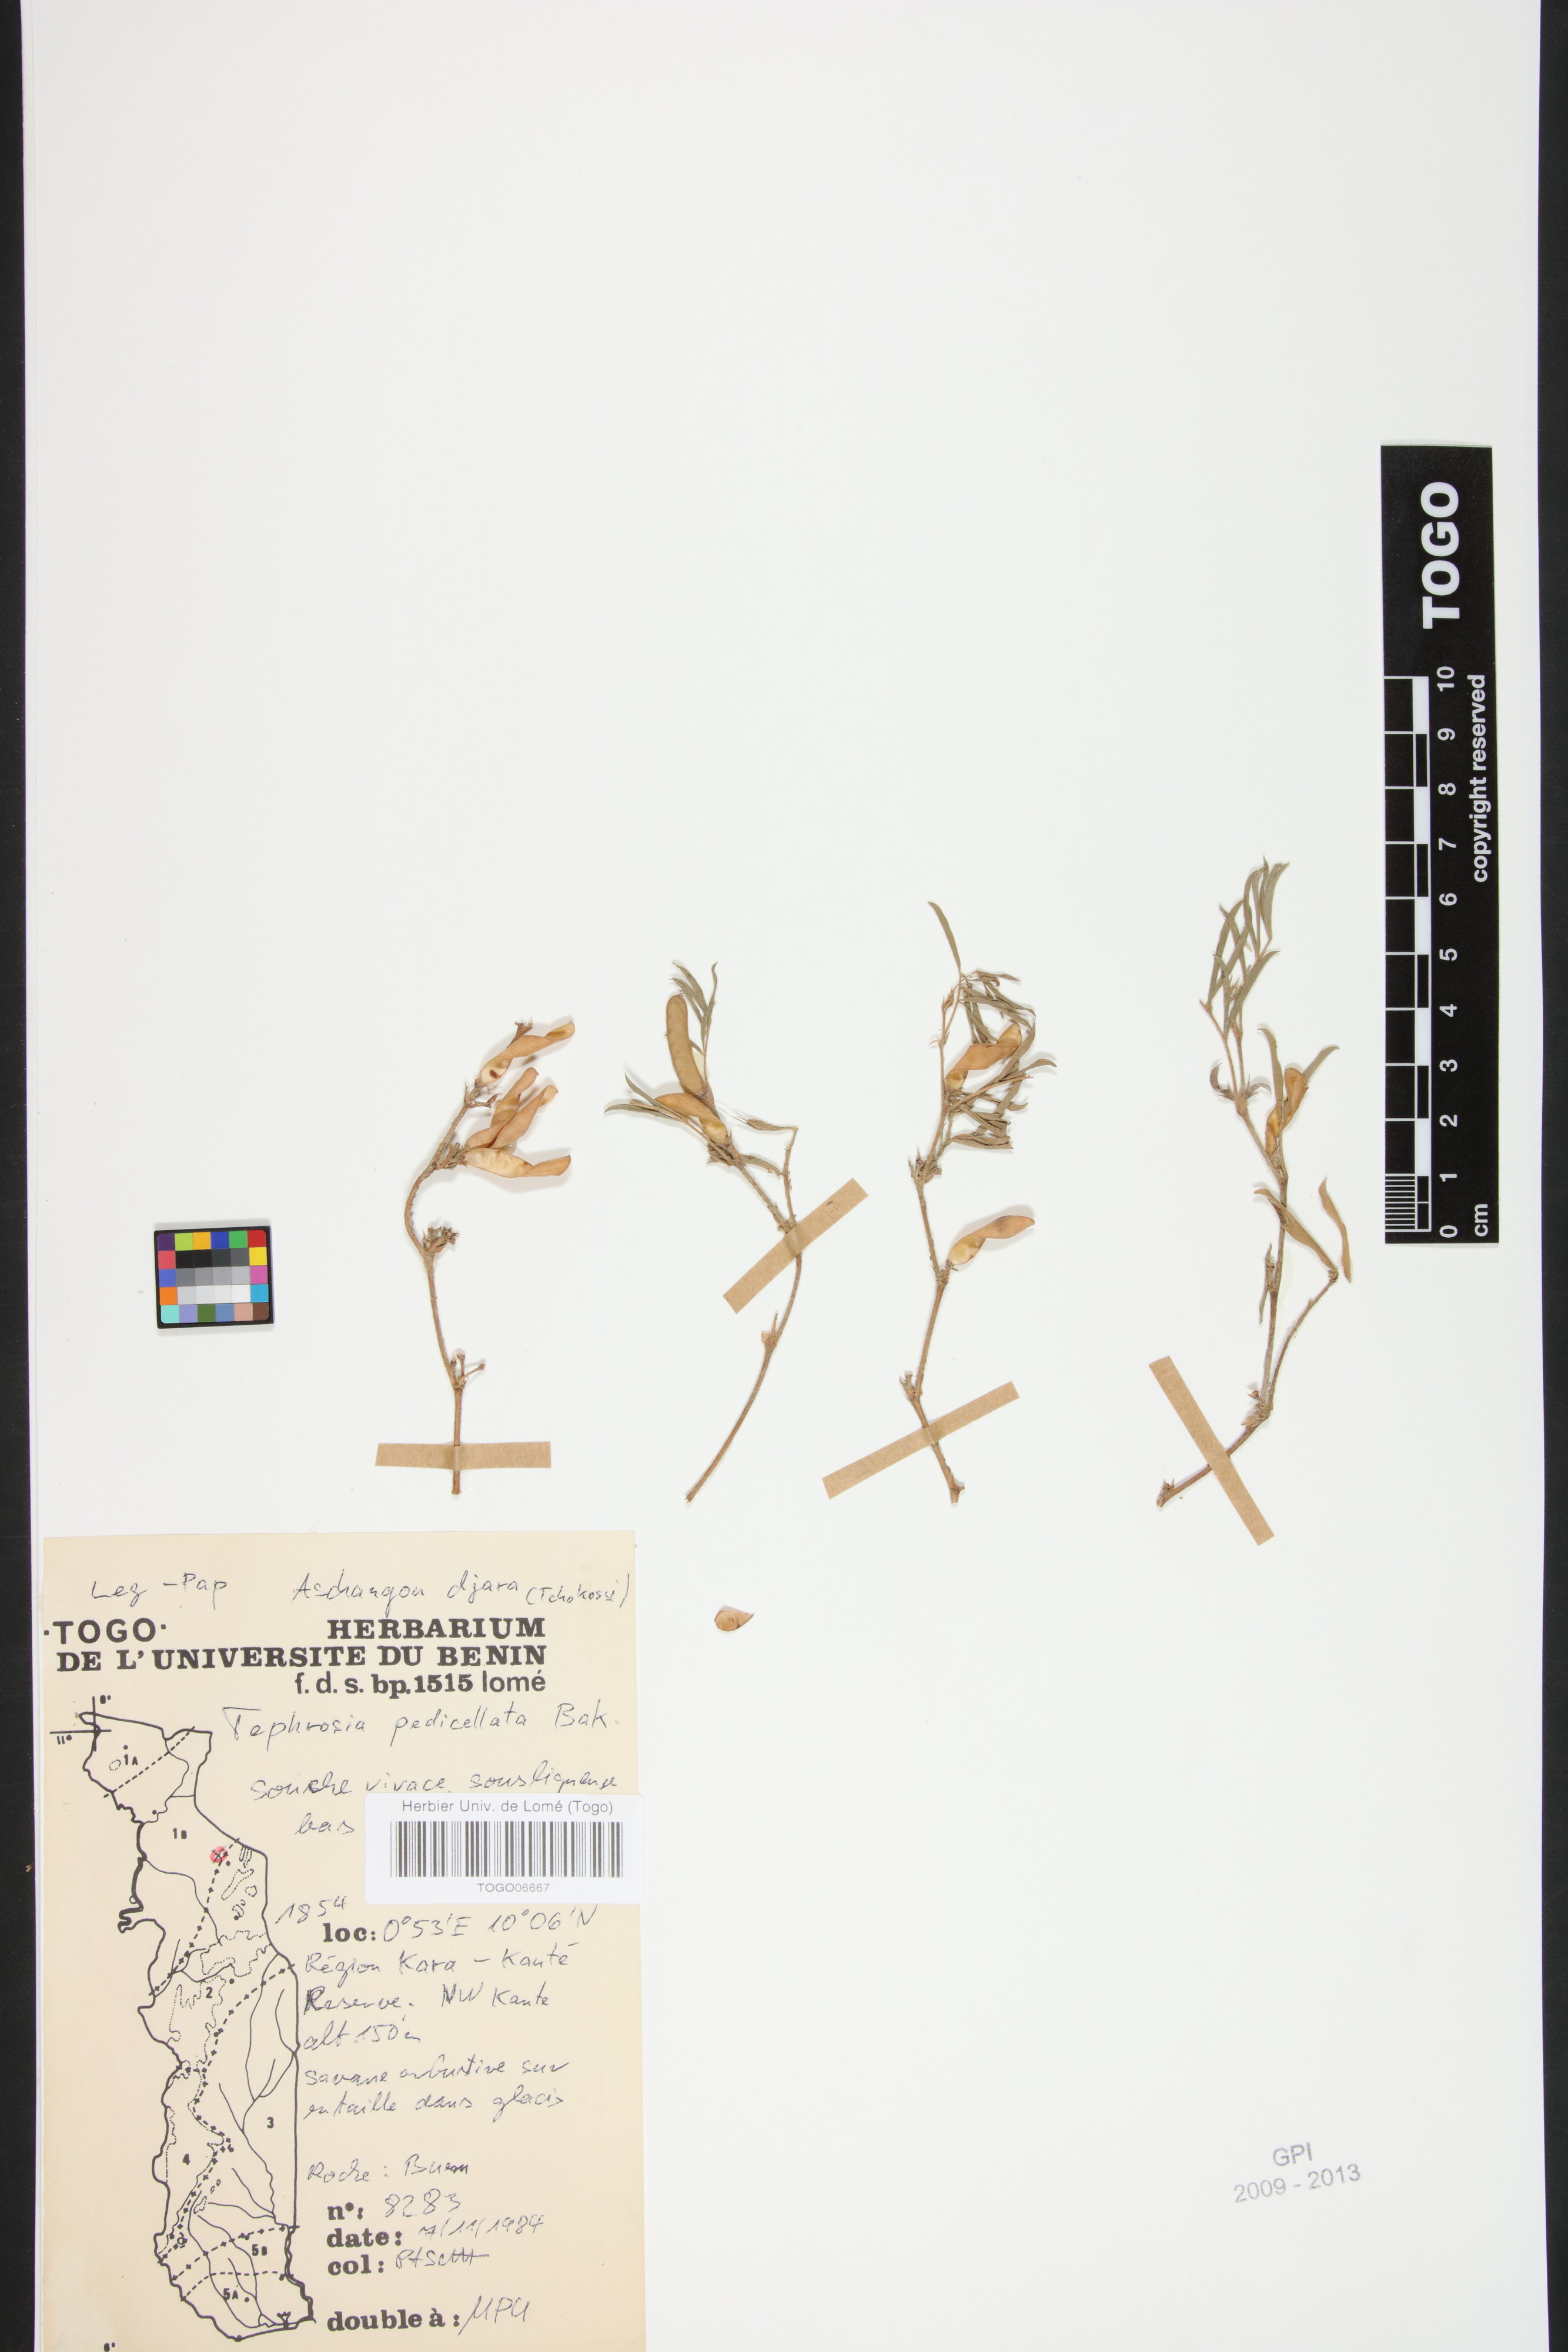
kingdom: Plantae
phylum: Tracheophyta
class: Magnoliopsida
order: Fabales
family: Fabaceae
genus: Tephrosia
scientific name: Tephrosia pedicellata
